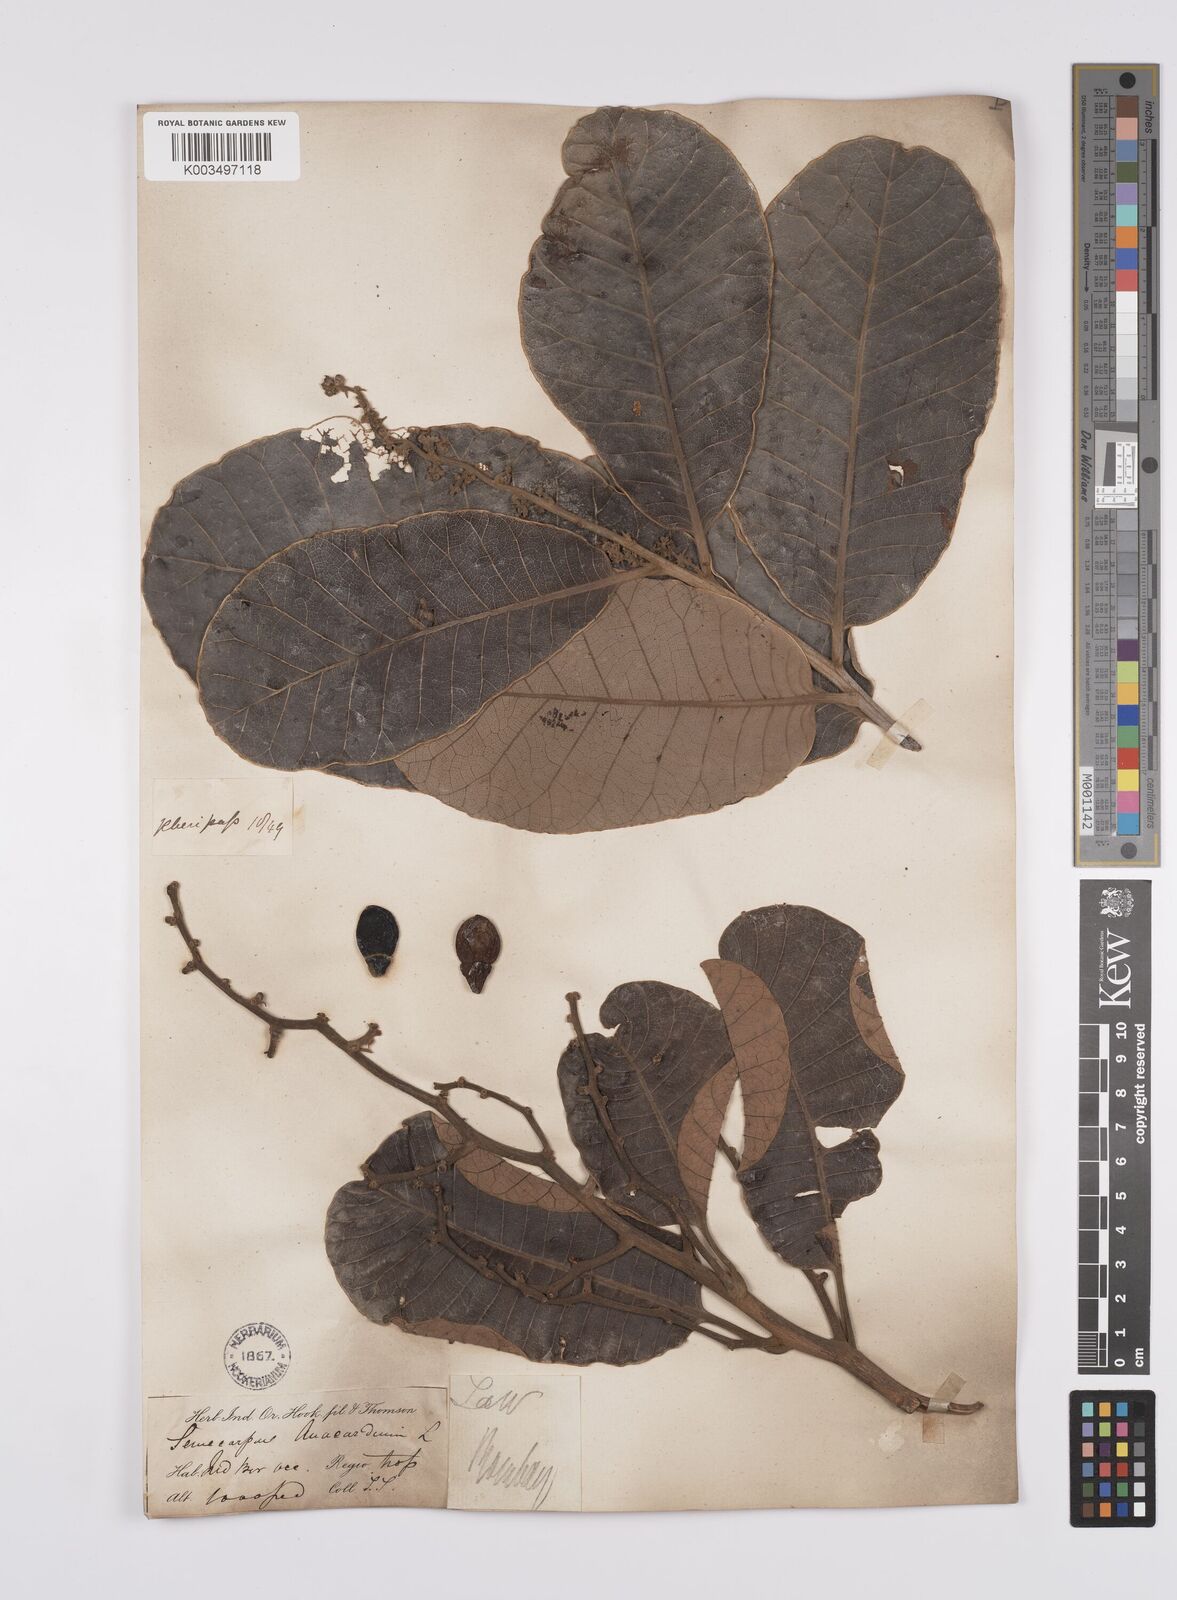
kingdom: Plantae
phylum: Tracheophyta
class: Magnoliopsida
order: Sapindales
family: Anacardiaceae
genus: Semecarpus
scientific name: Semecarpus anacardium
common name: Marking nut-tree
